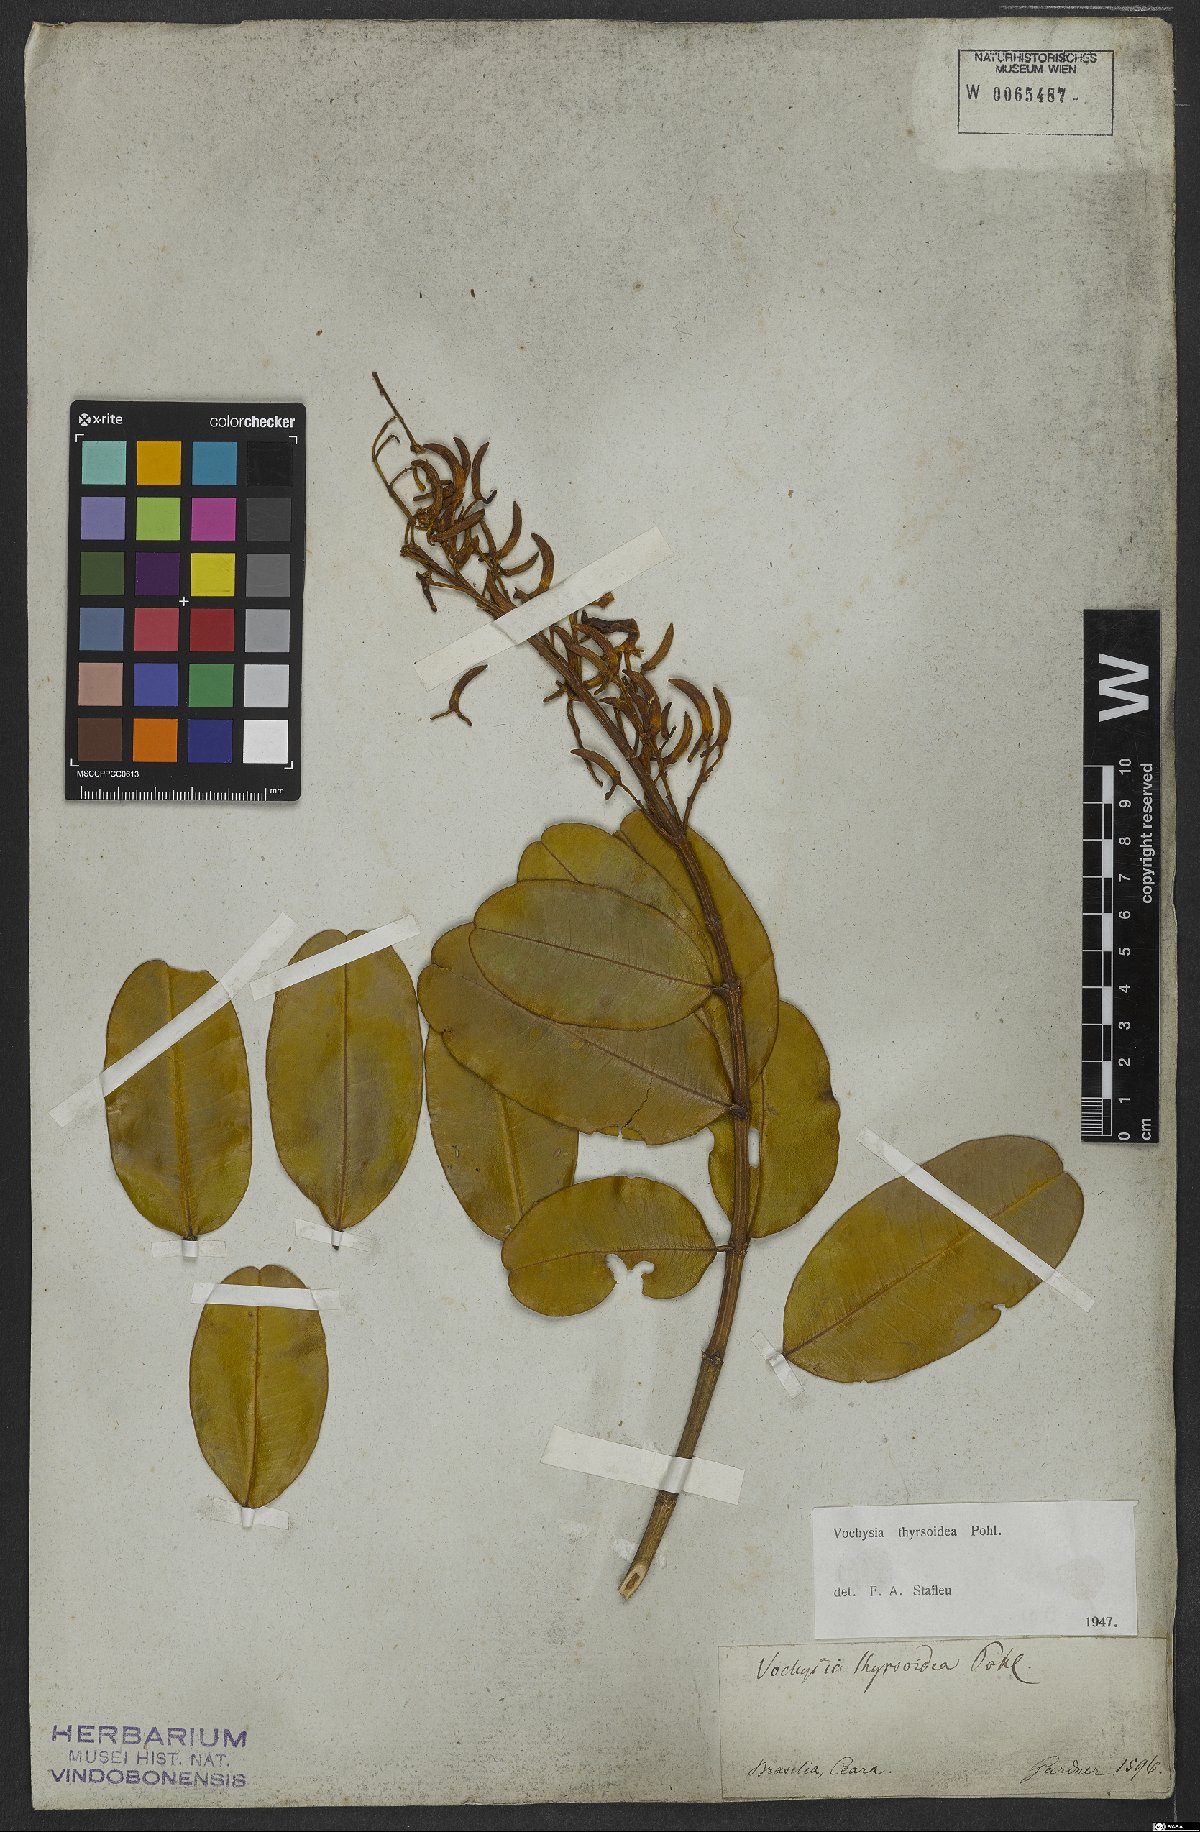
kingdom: Plantae
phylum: Tracheophyta
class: Magnoliopsida
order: Myrtales
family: Vochysiaceae
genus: Vochysia
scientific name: Vochysia thyrsoidea
